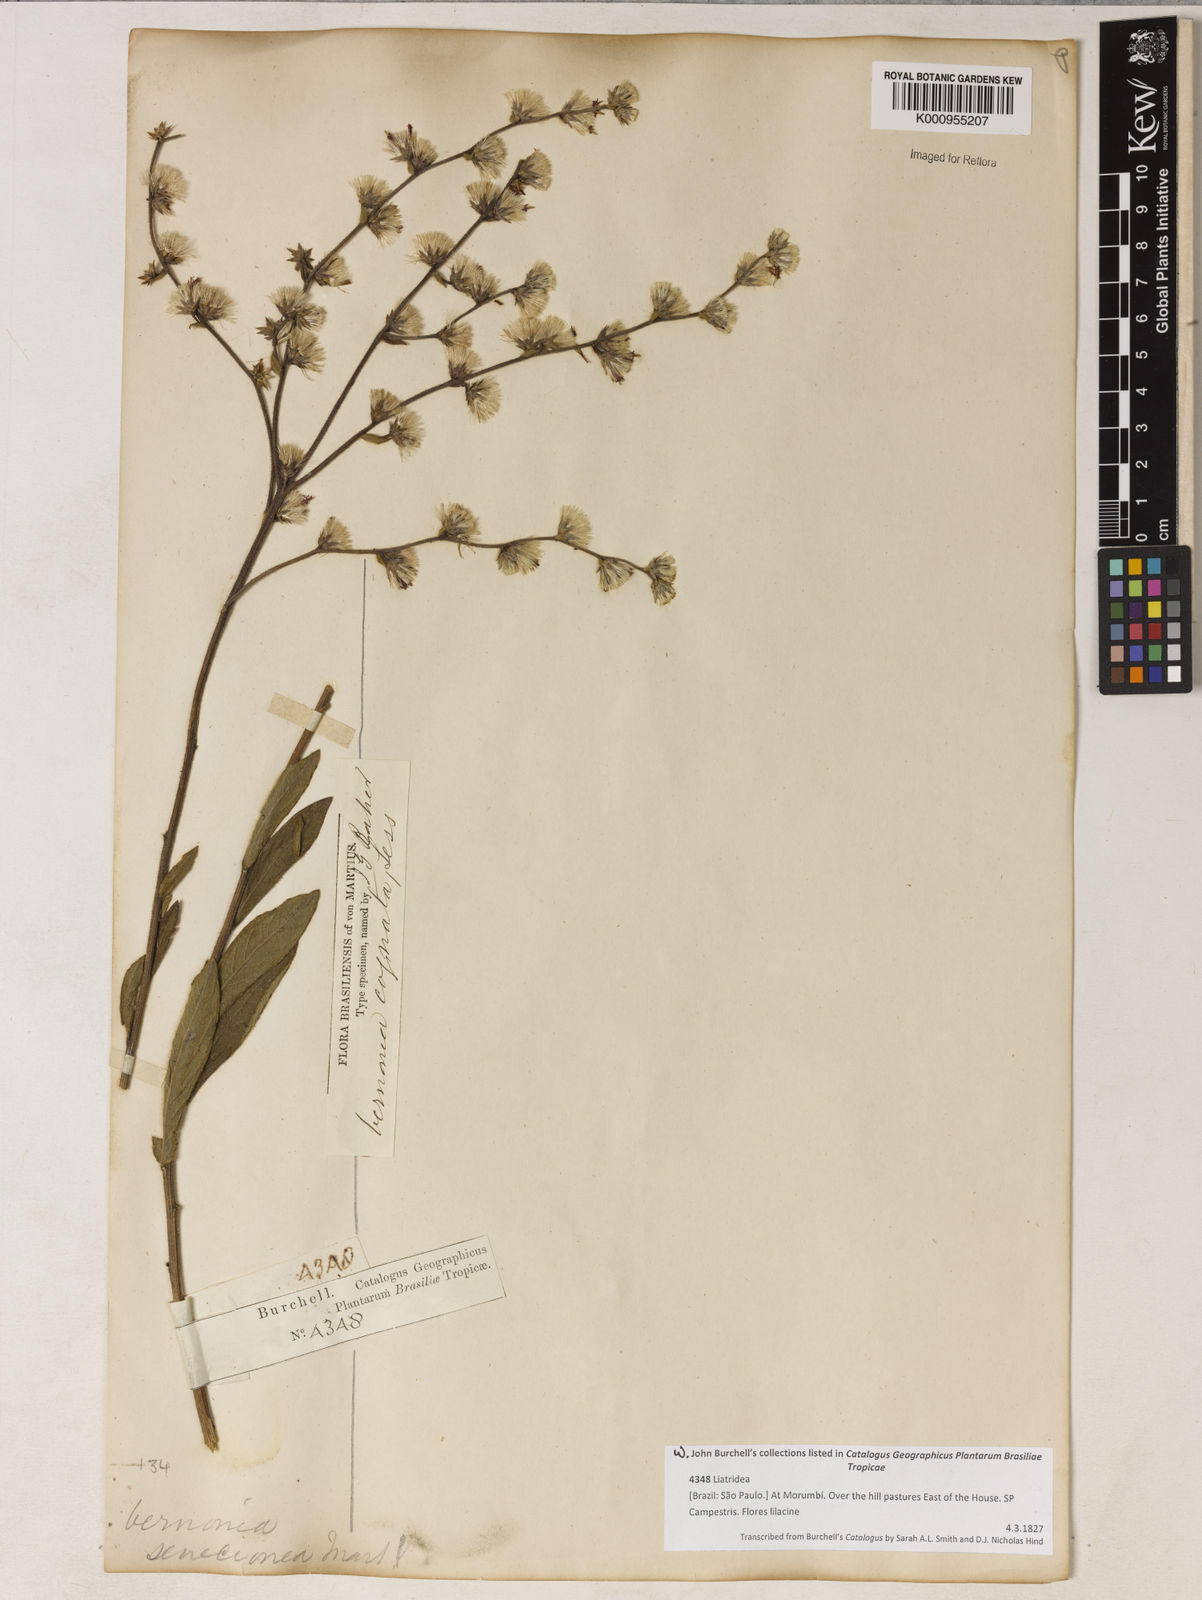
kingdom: Plantae
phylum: Tracheophyta
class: Magnoliopsida
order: Asterales
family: Asteraceae
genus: Chrysolaena
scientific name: Chrysolaena cognata
